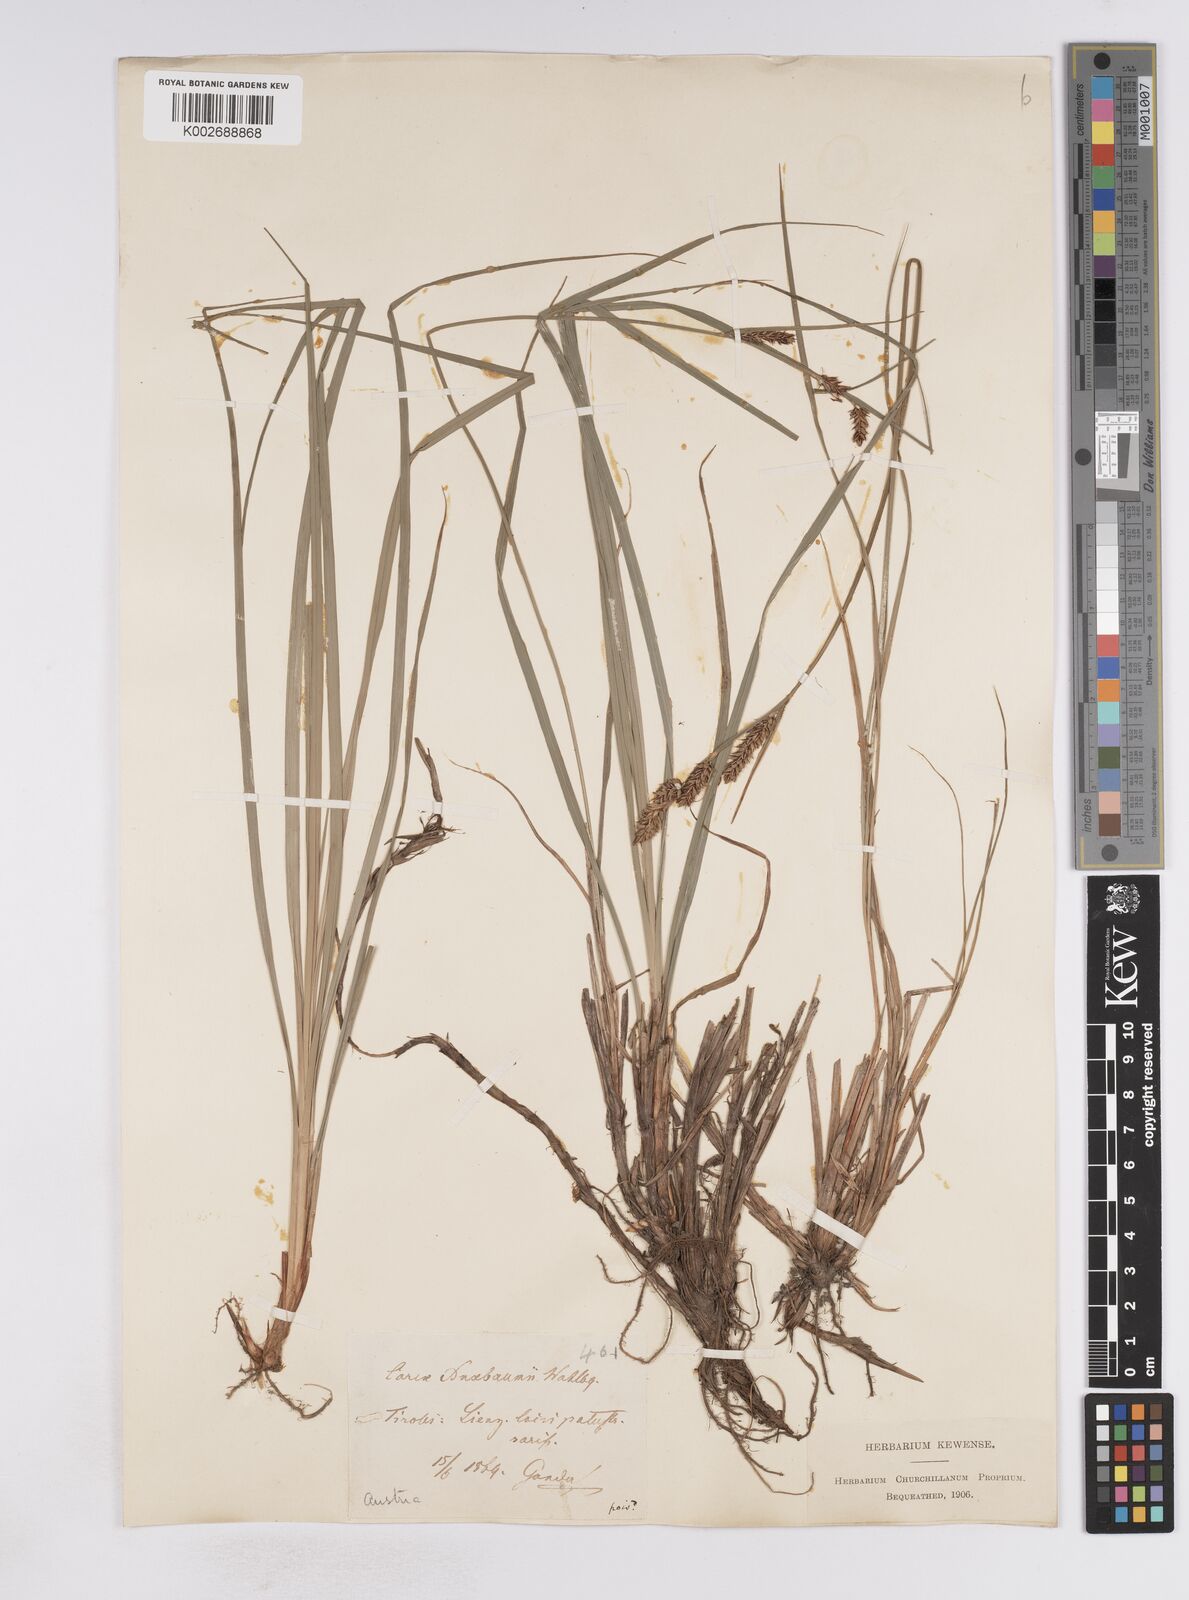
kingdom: Plantae
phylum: Tracheophyta
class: Liliopsida
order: Poales
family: Cyperaceae
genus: Carex
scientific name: Carex buxbaumii
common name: Club sedge
